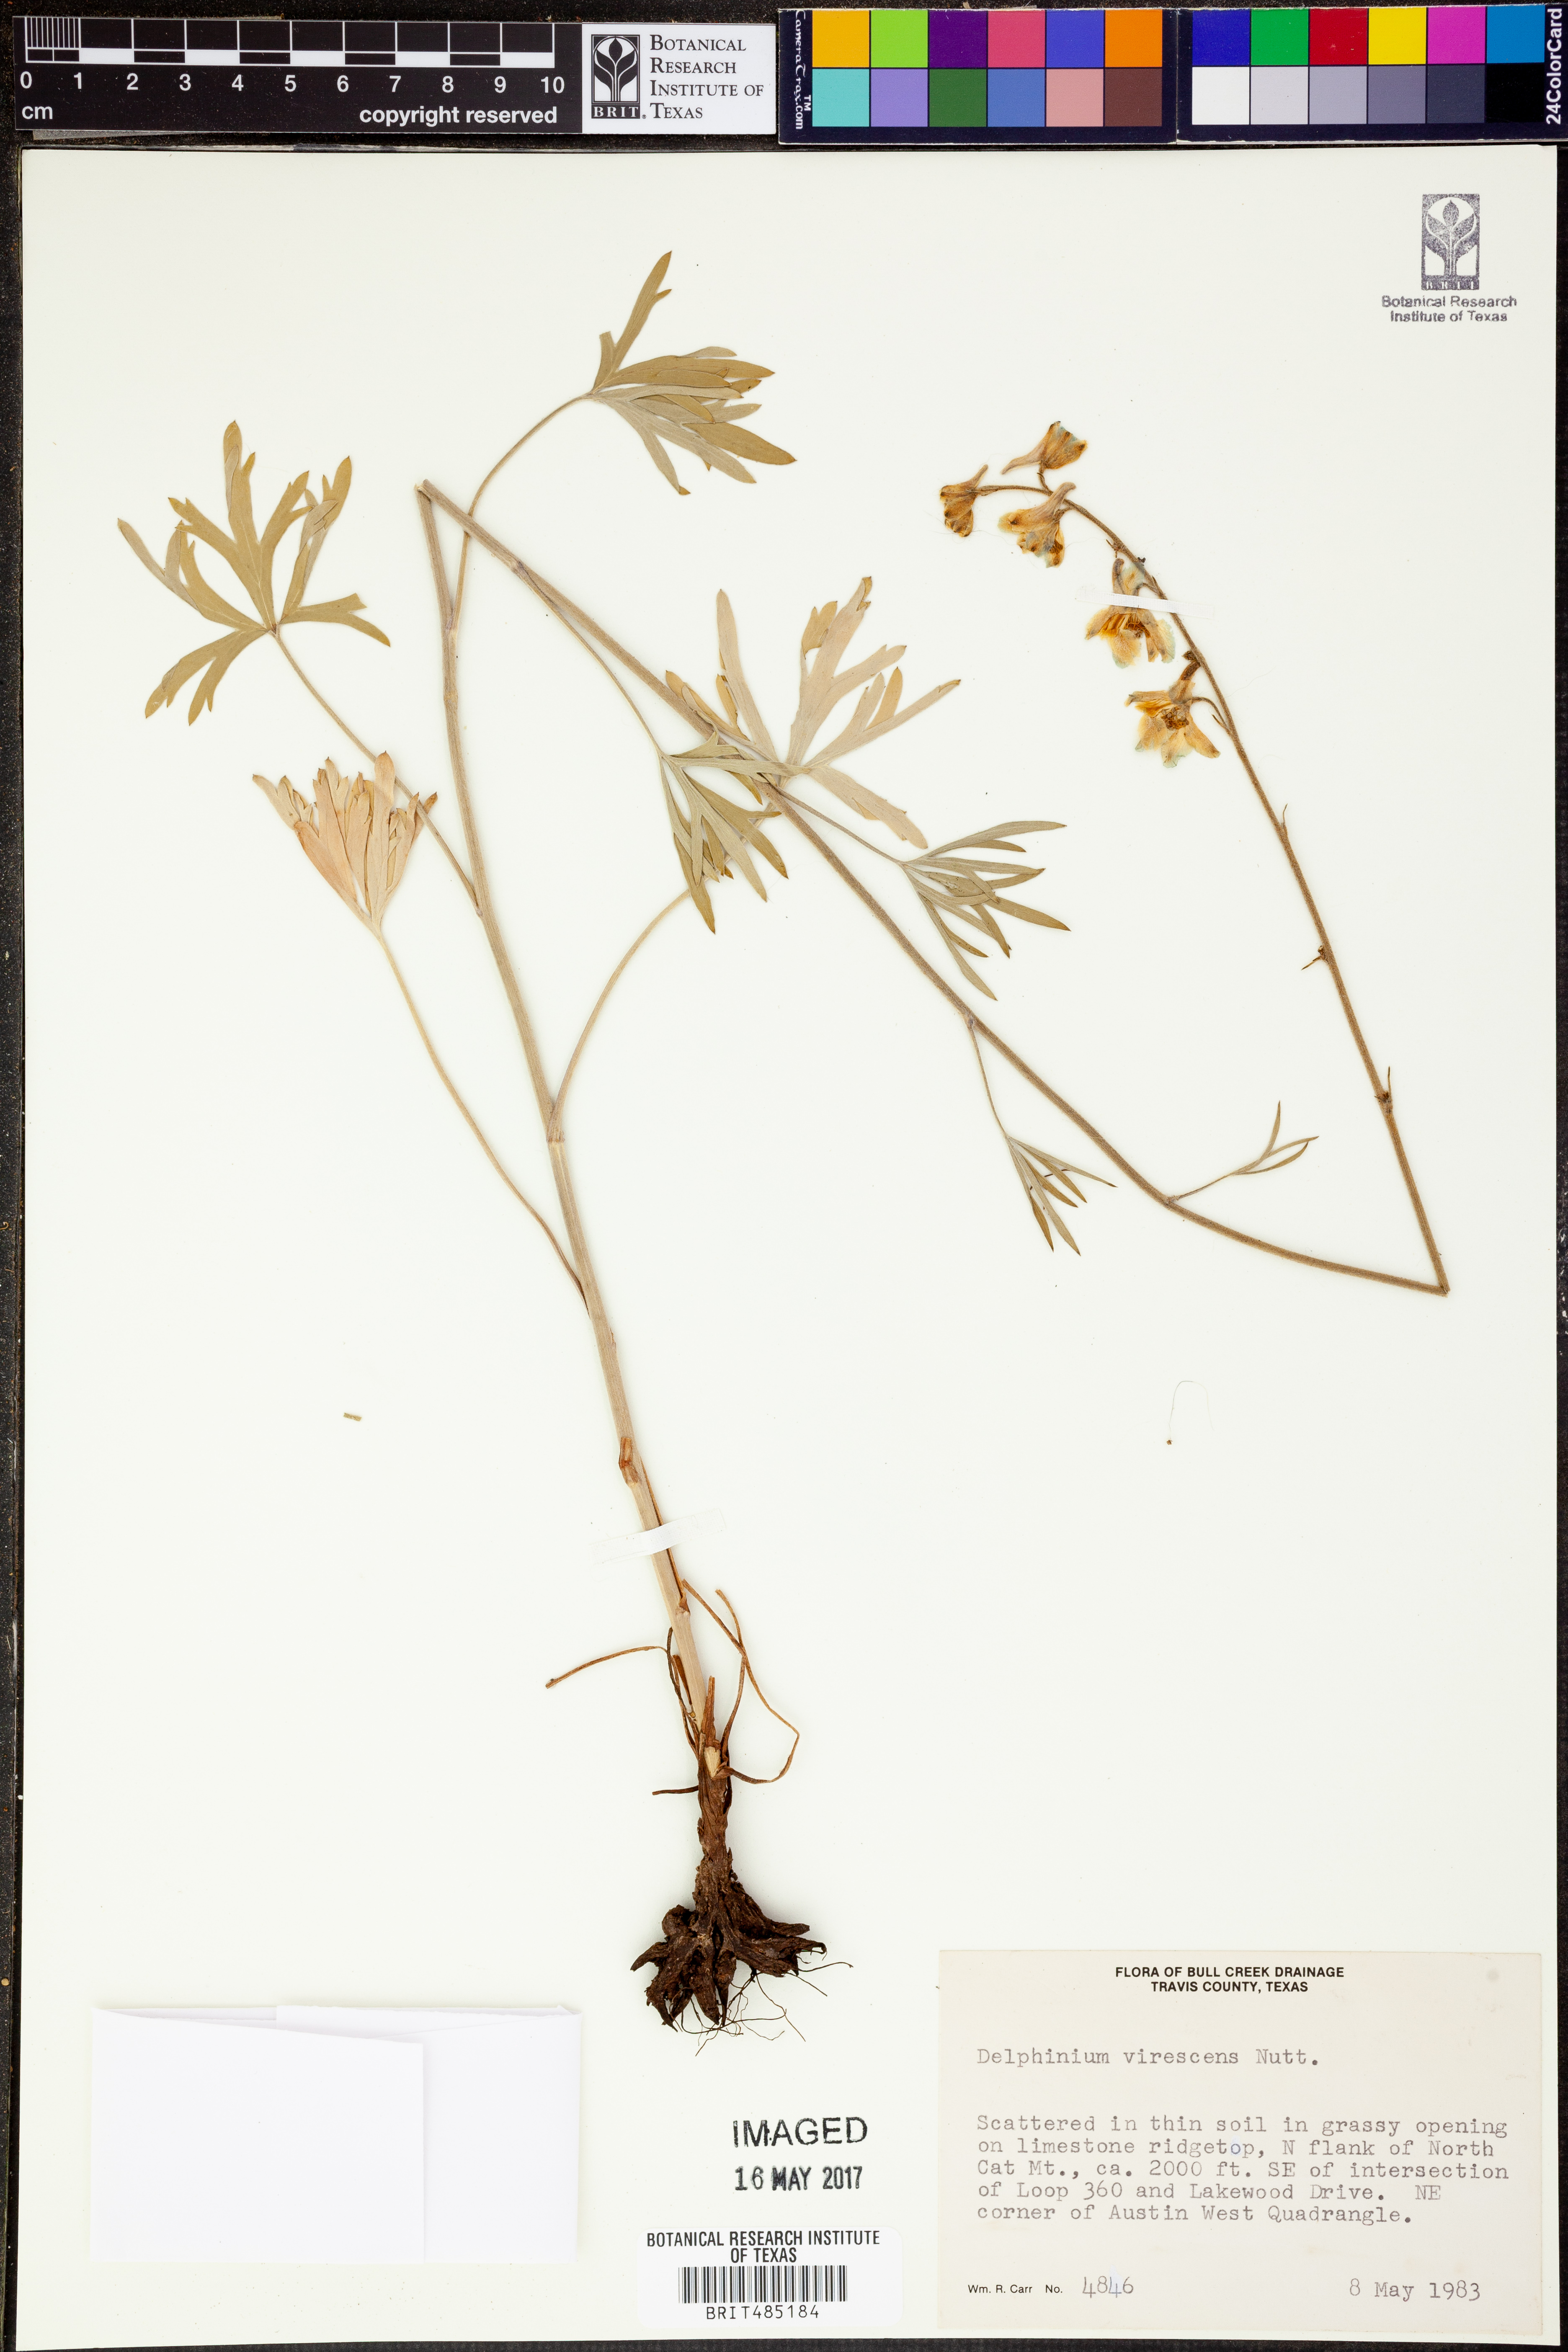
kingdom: Plantae
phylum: Tracheophyta
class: Magnoliopsida
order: Ranunculales
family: Ranunculaceae
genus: Delphinium
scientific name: Delphinium carolinianum
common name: Carolina larkspur
